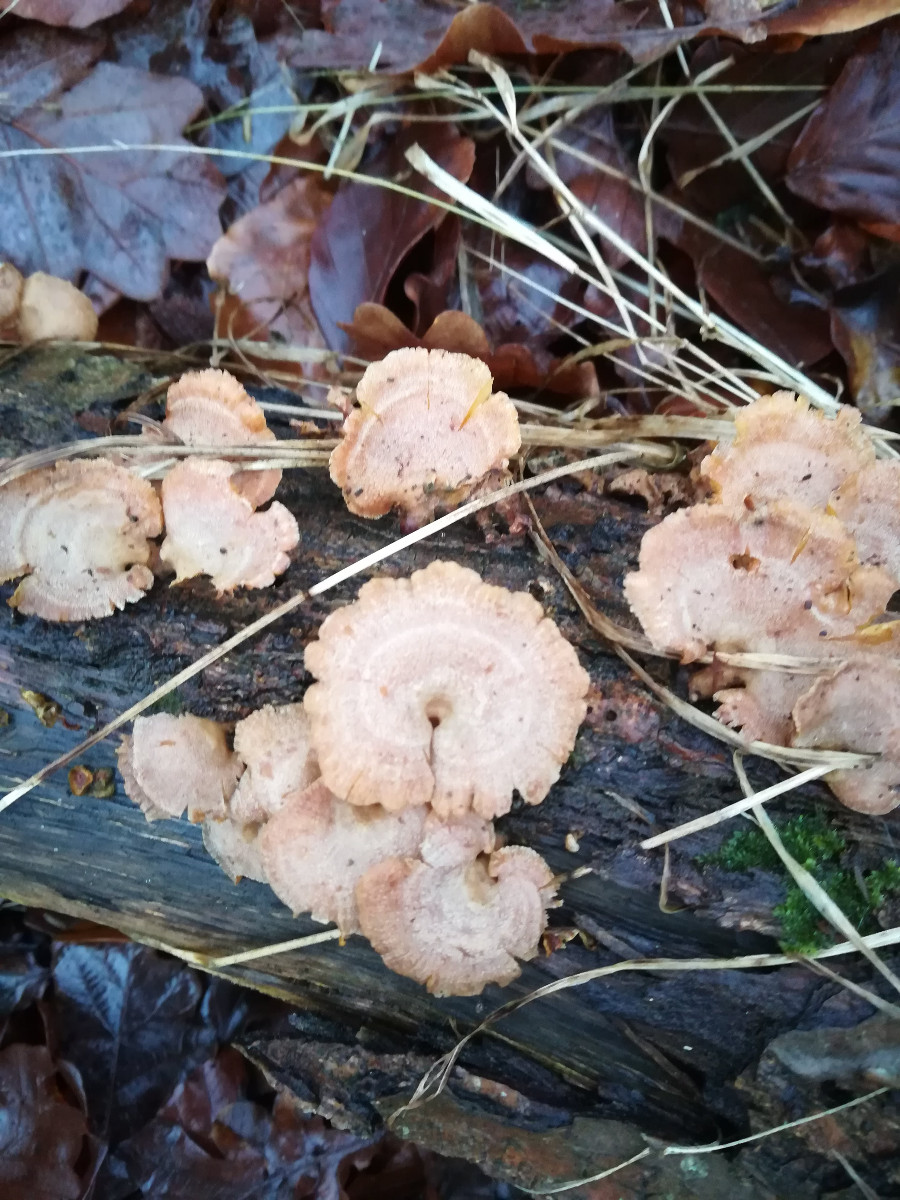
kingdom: Fungi
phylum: Basidiomycota
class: Agaricomycetes
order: Agaricales
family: Mycenaceae
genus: Panellus
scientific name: Panellus stipticus
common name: kliddet epaulethat
